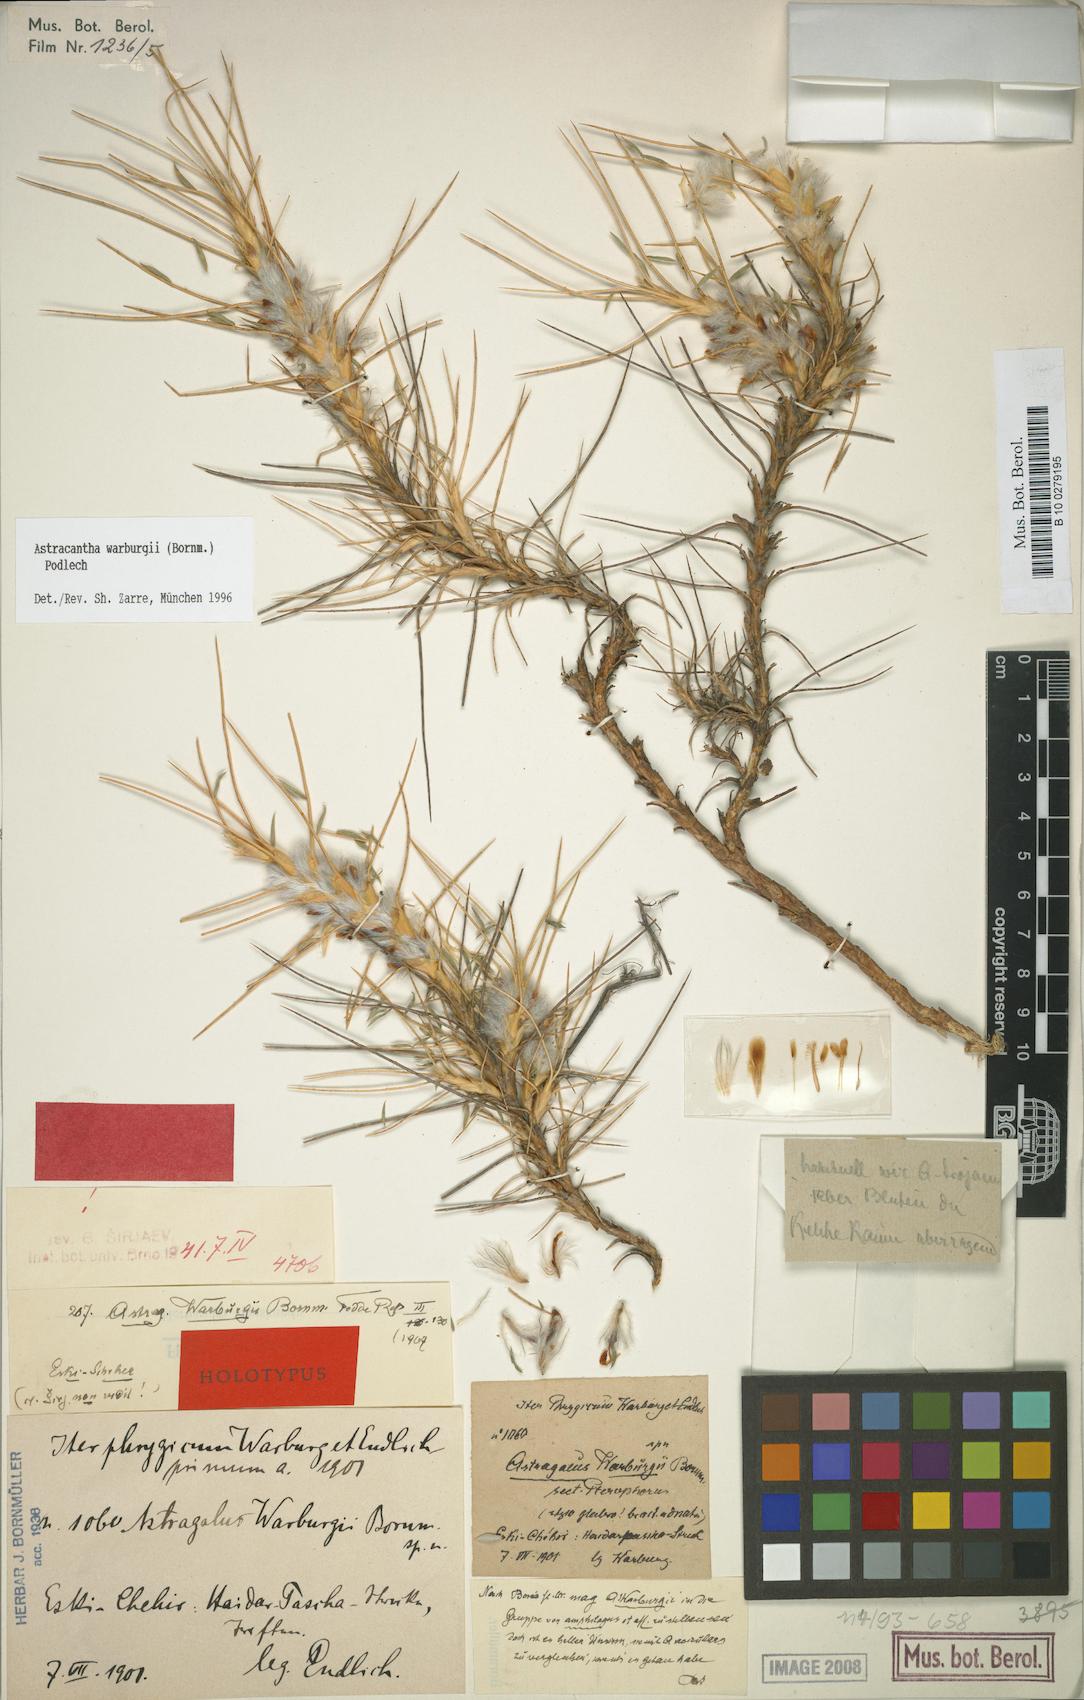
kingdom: Plantae
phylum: Tracheophyta
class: Magnoliopsida
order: Fabales
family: Fabaceae
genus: Astragalus
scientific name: Astragalus thracicus
